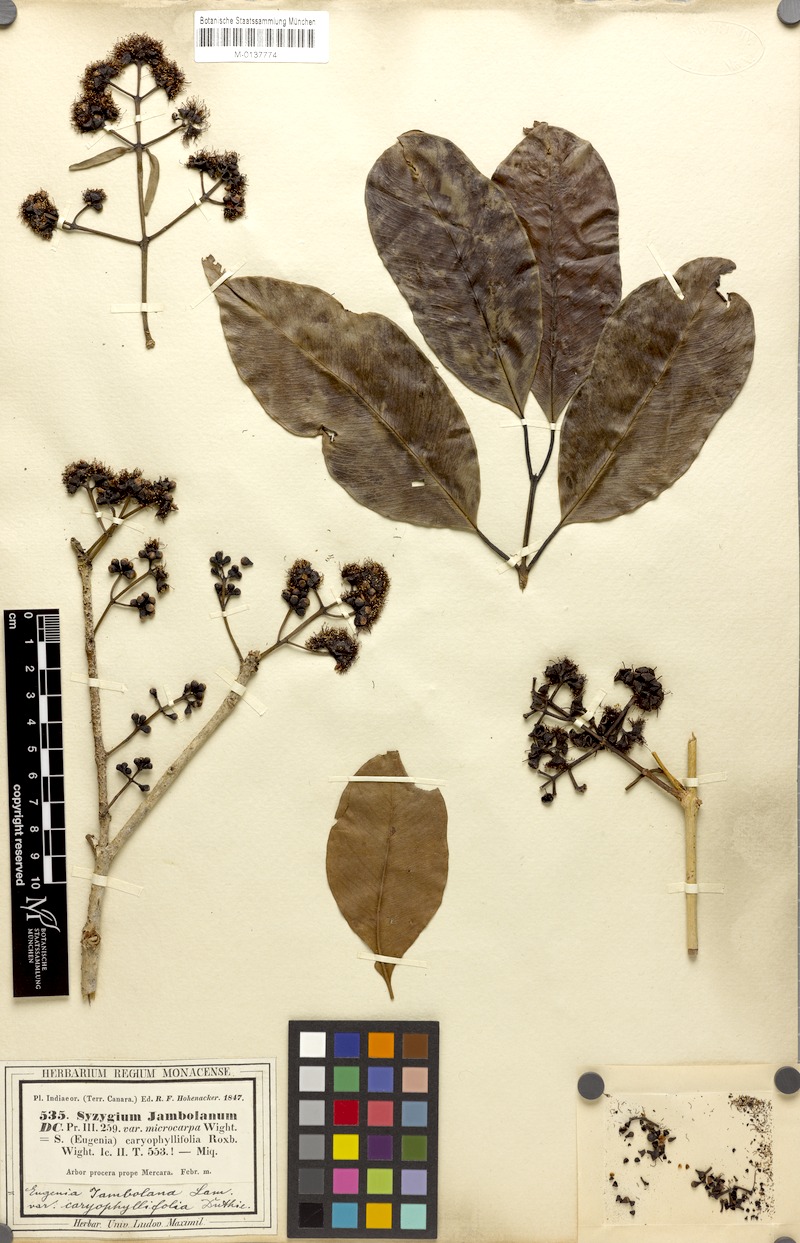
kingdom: Plantae
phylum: Tracheophyta
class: Magnoliopsida
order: Myrtales
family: Myrtaceae
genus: Syzygium
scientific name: Syzygium cumini
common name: Java plum
